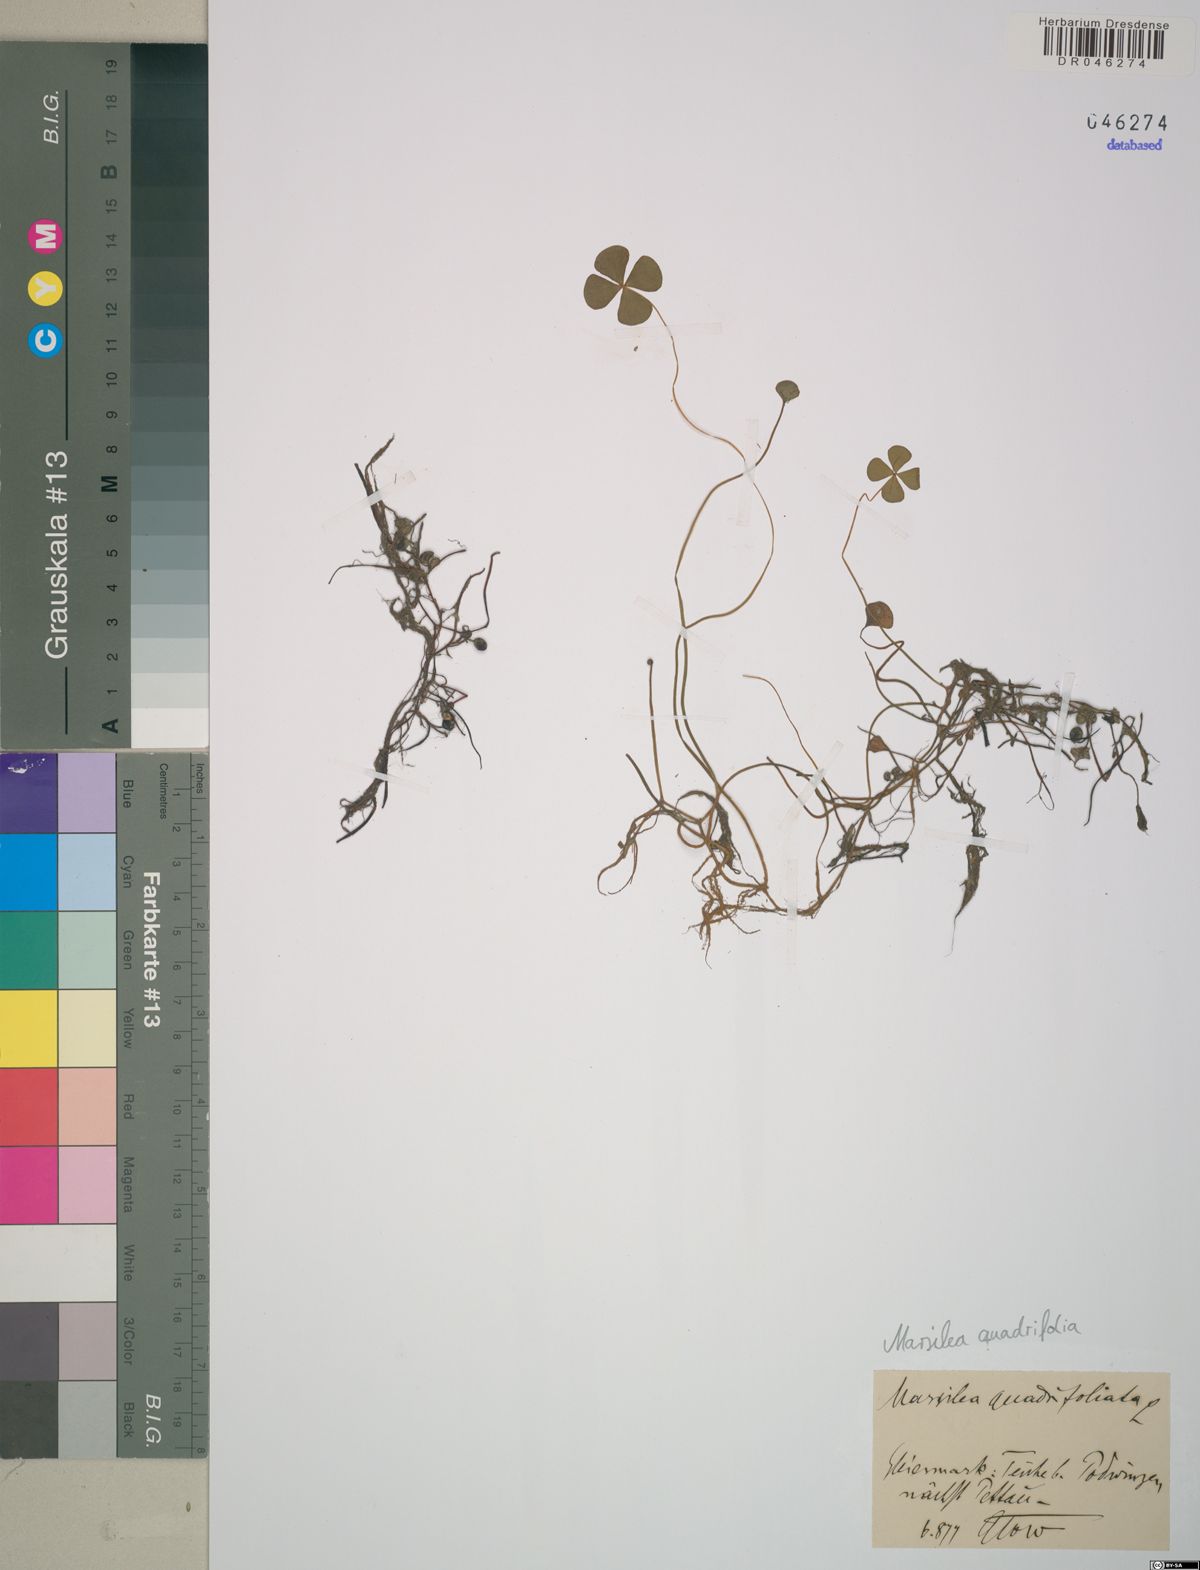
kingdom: Plantae
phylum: Tracheophyta
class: Polypodiopsida
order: Salviniales
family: Marsileaceae
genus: Marsilea
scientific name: Marsilea quadrifolia
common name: Water shamrock
